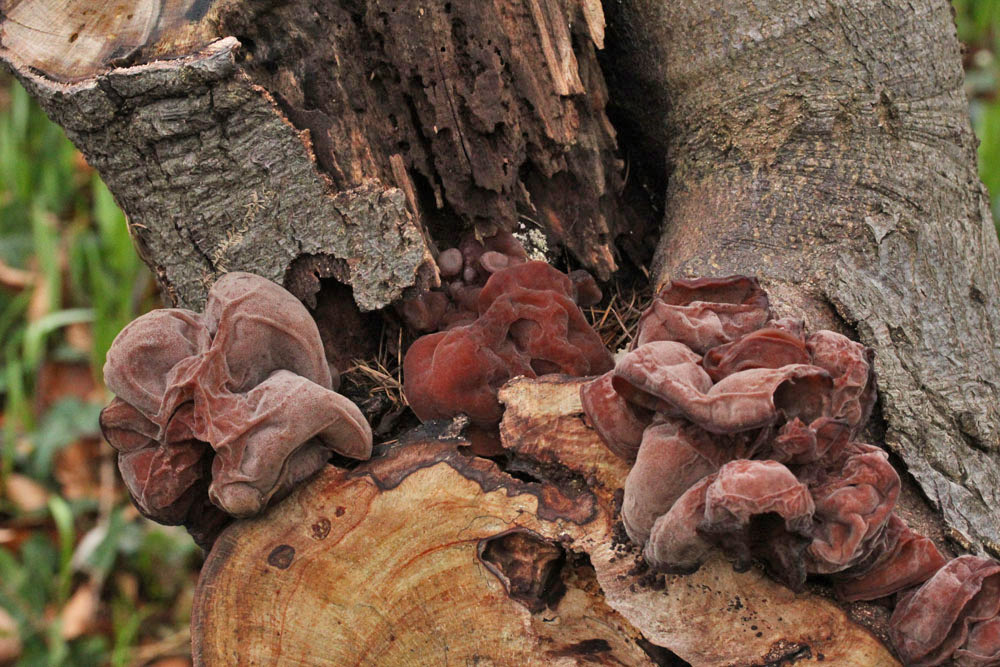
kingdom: Fungi
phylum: Basidiomycota
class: Agaricomycetes
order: Auriculariales
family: Auriculariaceae
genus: Auricularia
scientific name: Auricularia auricula-judae
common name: almindelig judasøre
